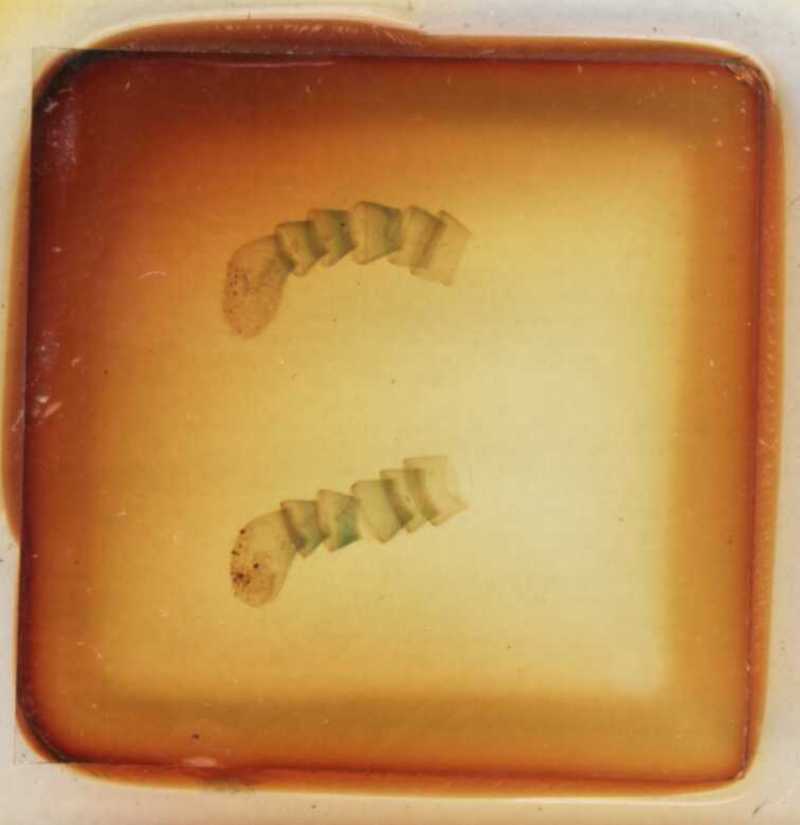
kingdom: Animalia
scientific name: Animalia
